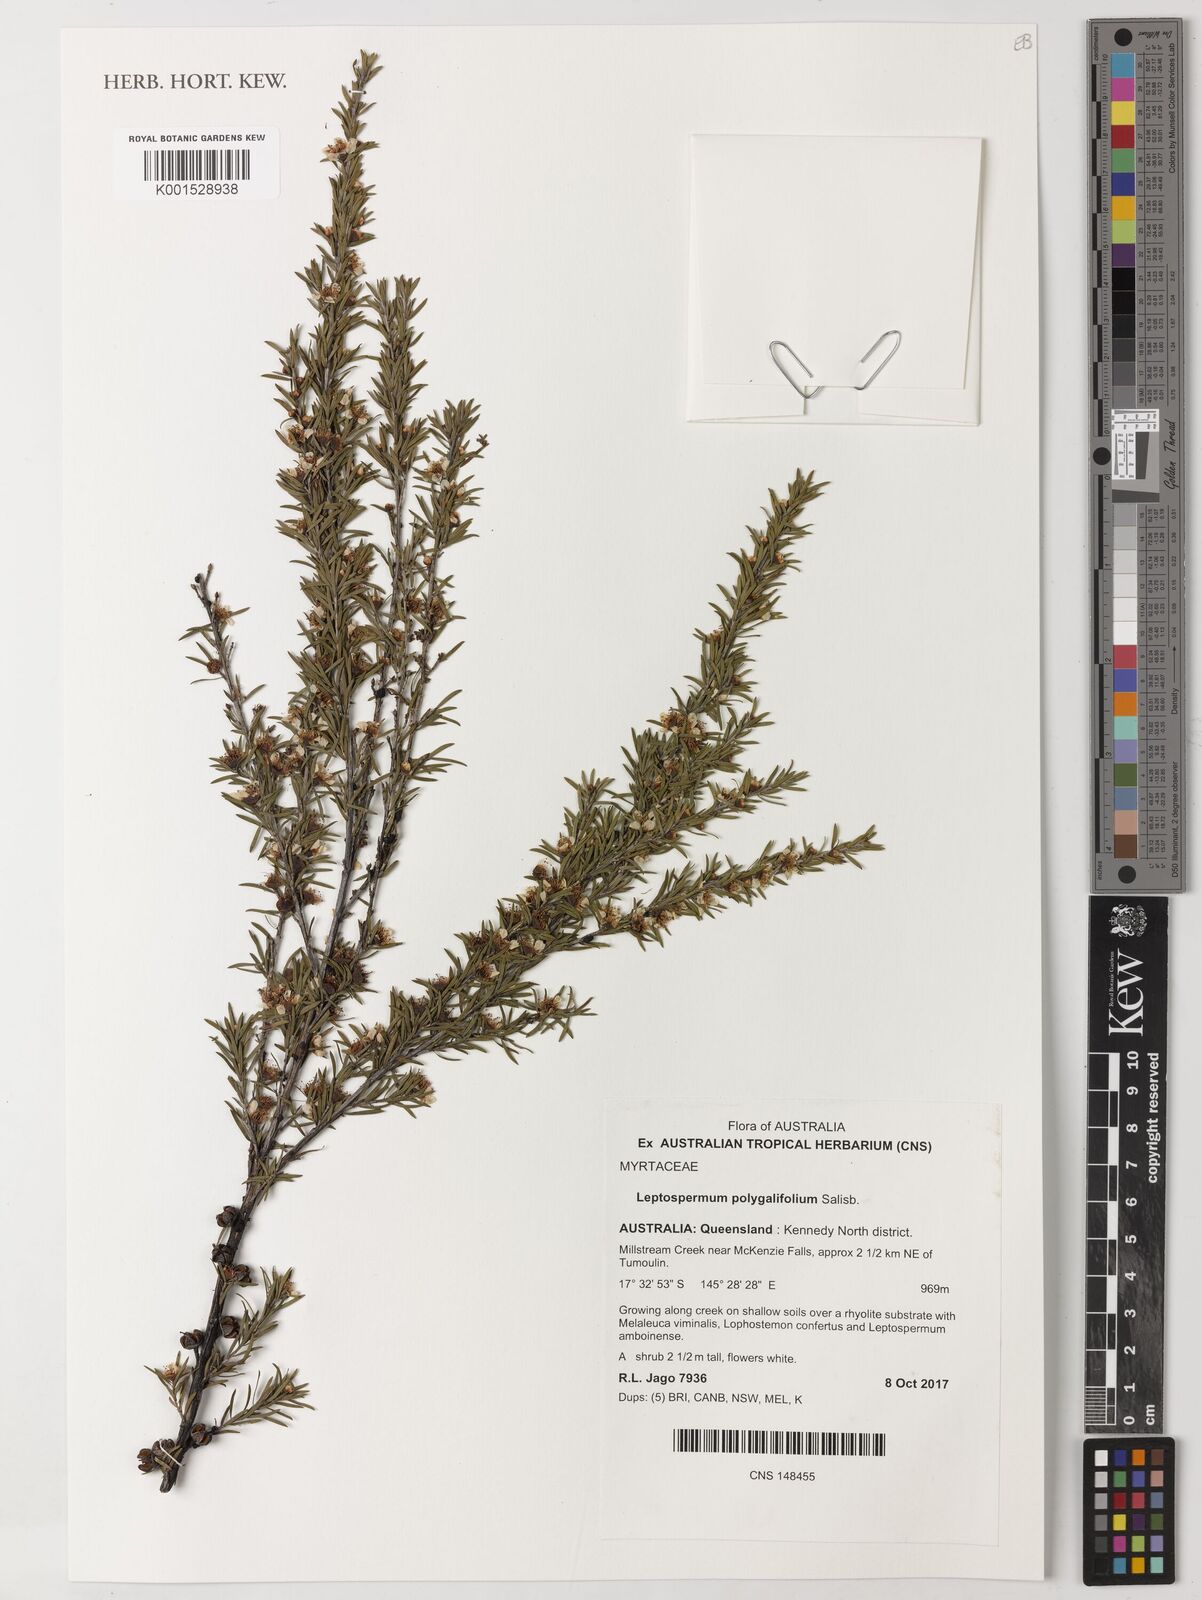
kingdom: Plantae
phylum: Tracheophyta
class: Magnoliopsida
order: Myrtales
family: Myrtaceae
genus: Leptospermum
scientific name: Leptospermum polygalifolium
